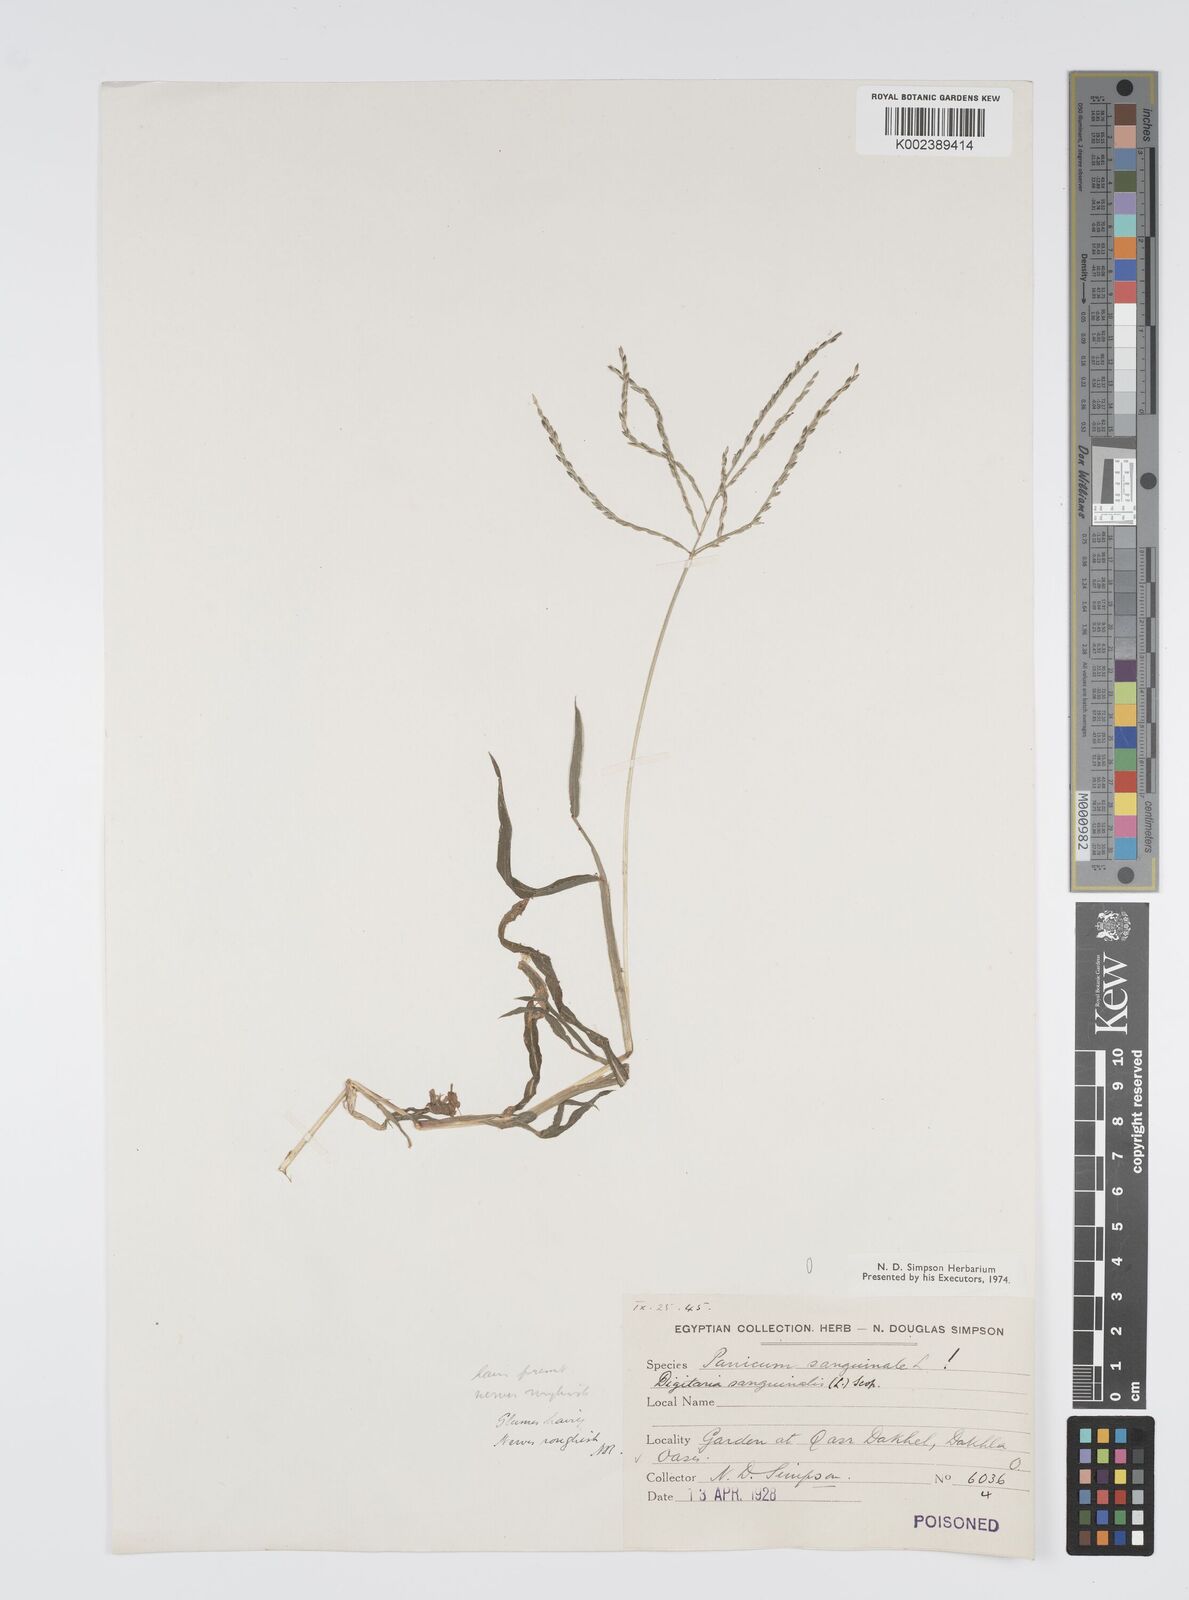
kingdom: Plantae
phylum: Tracheophyta
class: Liliopsida
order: Poales
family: Poaceae
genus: Digitaria
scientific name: Digitaria sanguinalis
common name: Hairy crabgrass
